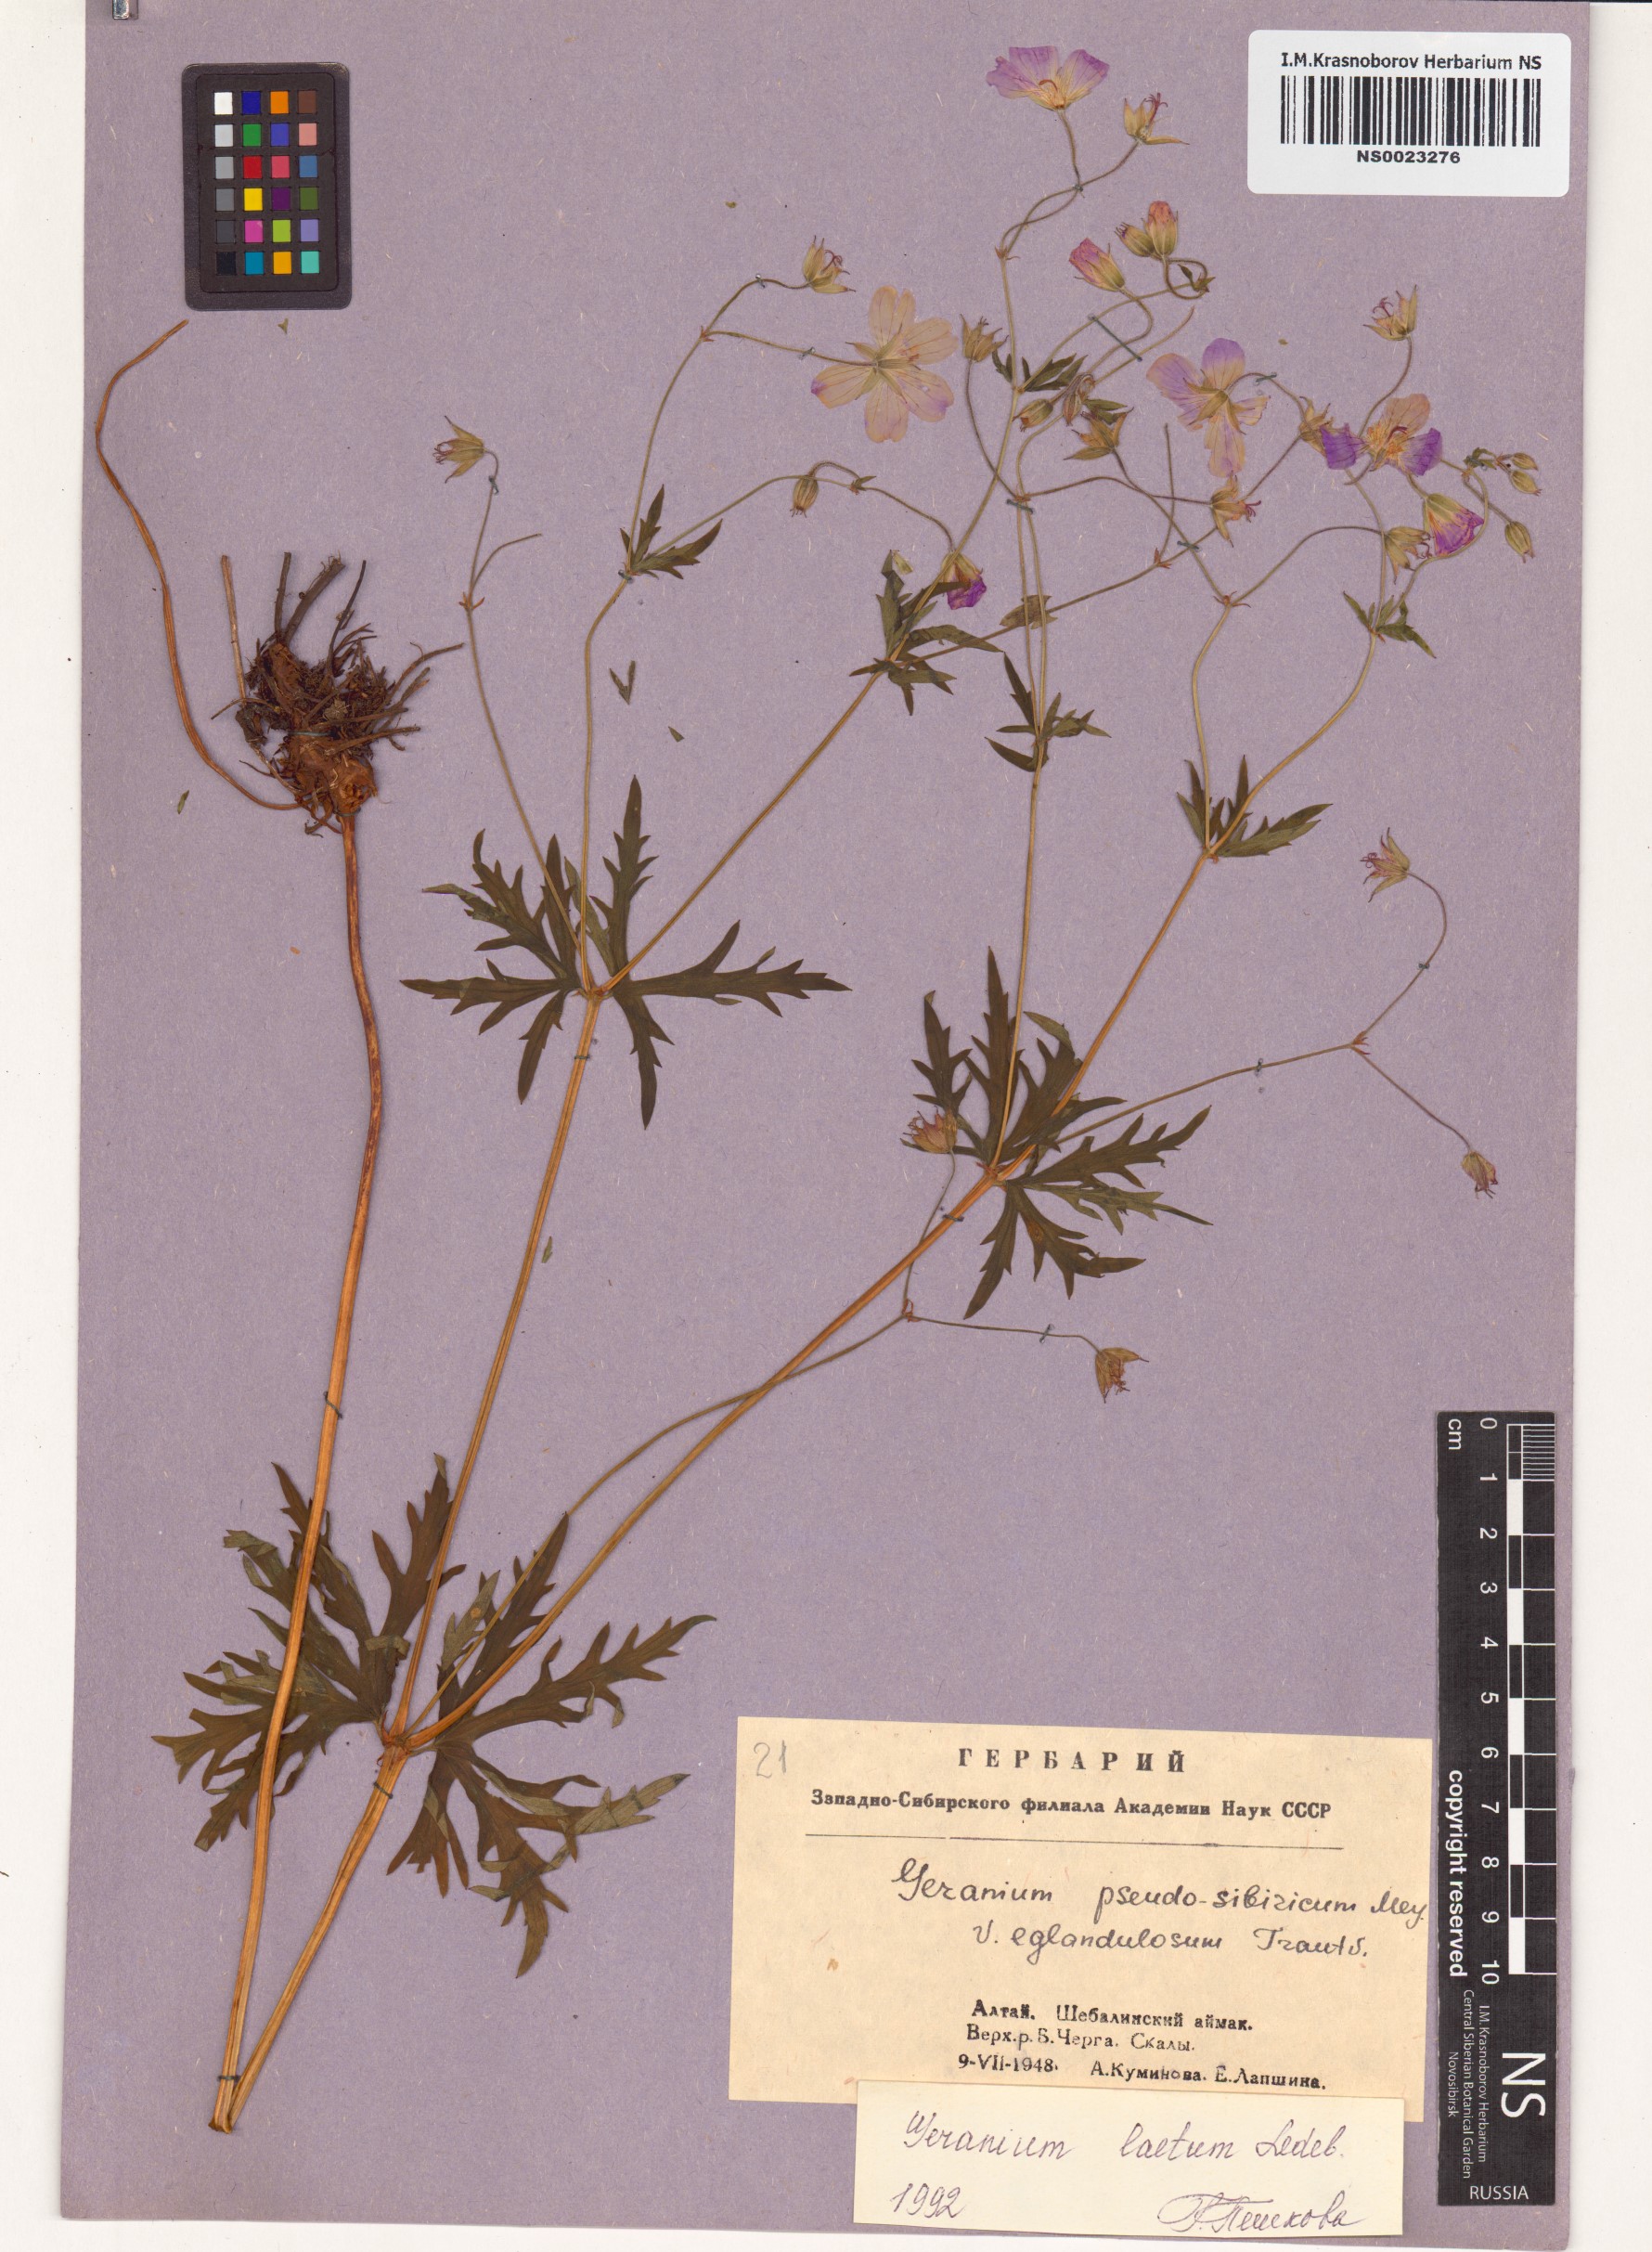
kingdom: Plantae
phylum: Tracheophyta
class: Magnoliopsida
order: Geraniales
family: Geraniaceae
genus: Geranium
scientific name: Geranium pseudosibiricum
